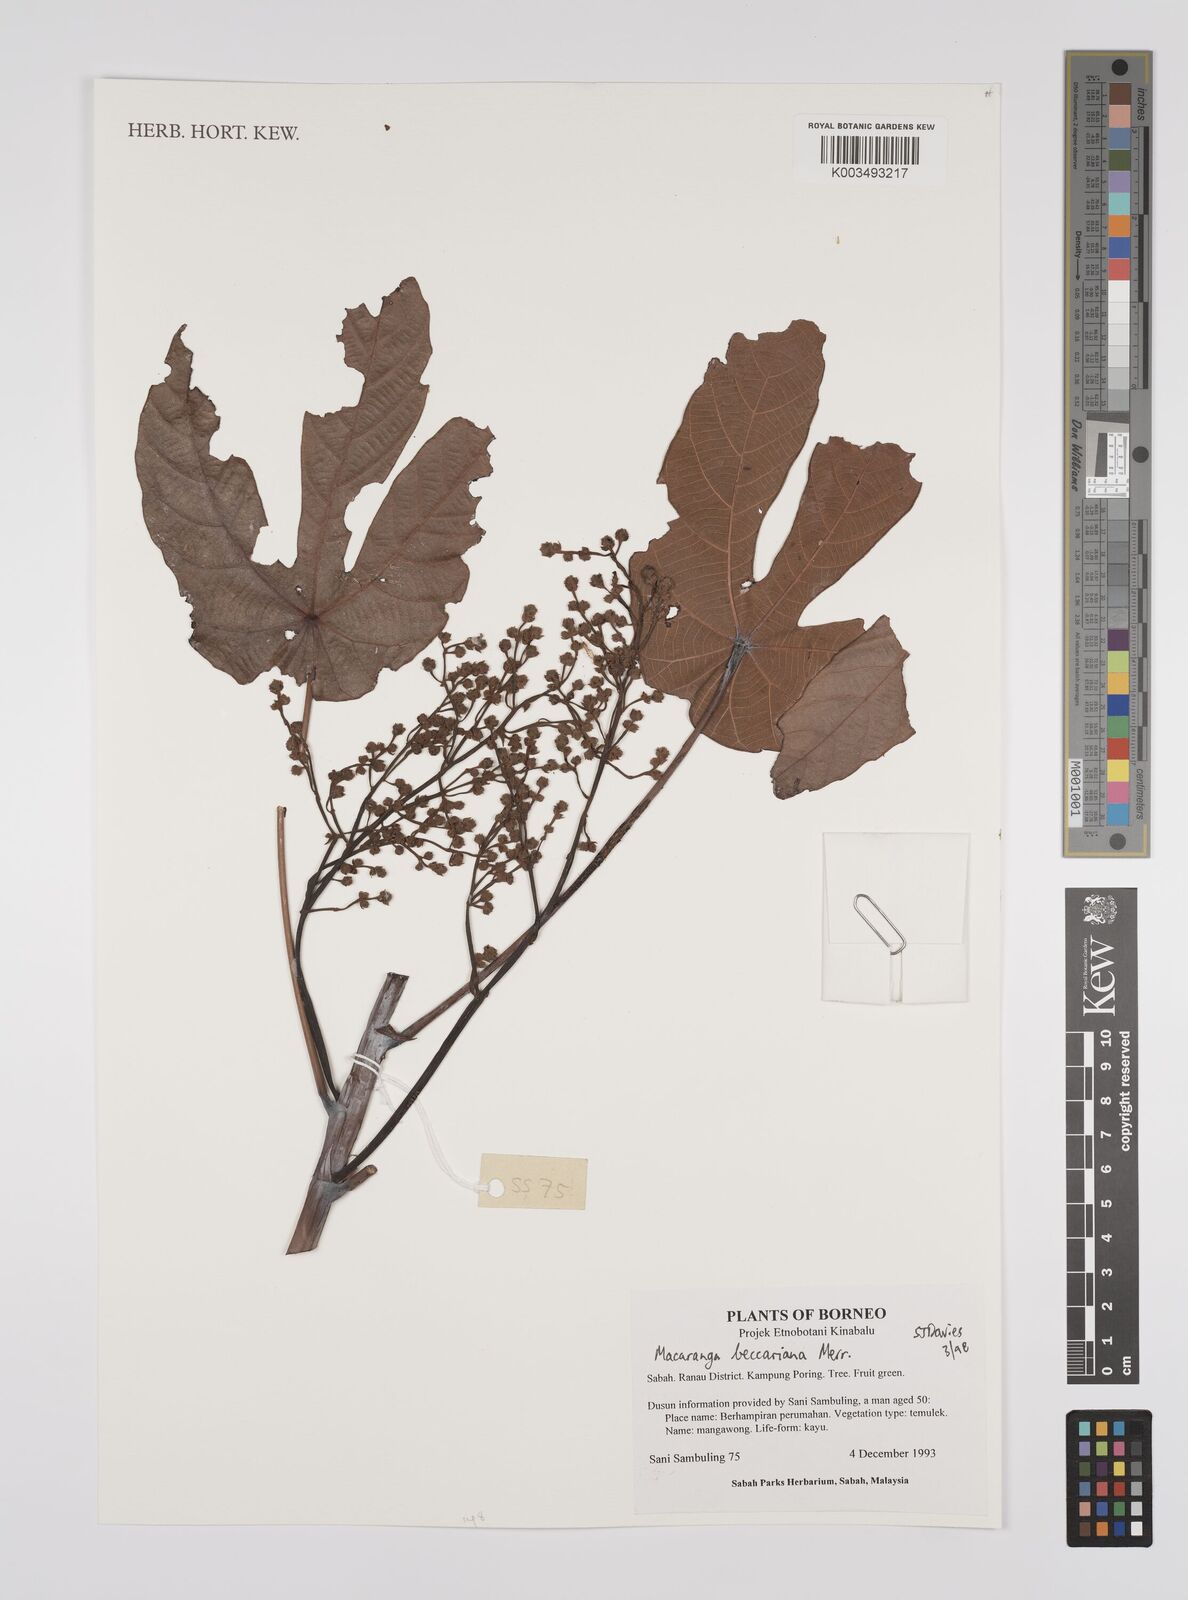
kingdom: Plantae
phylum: Tracheophyta
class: Magnoliopsida
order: Malpighiales
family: Euphorbiaceae
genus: Macaranga
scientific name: Macaranga beccariana
